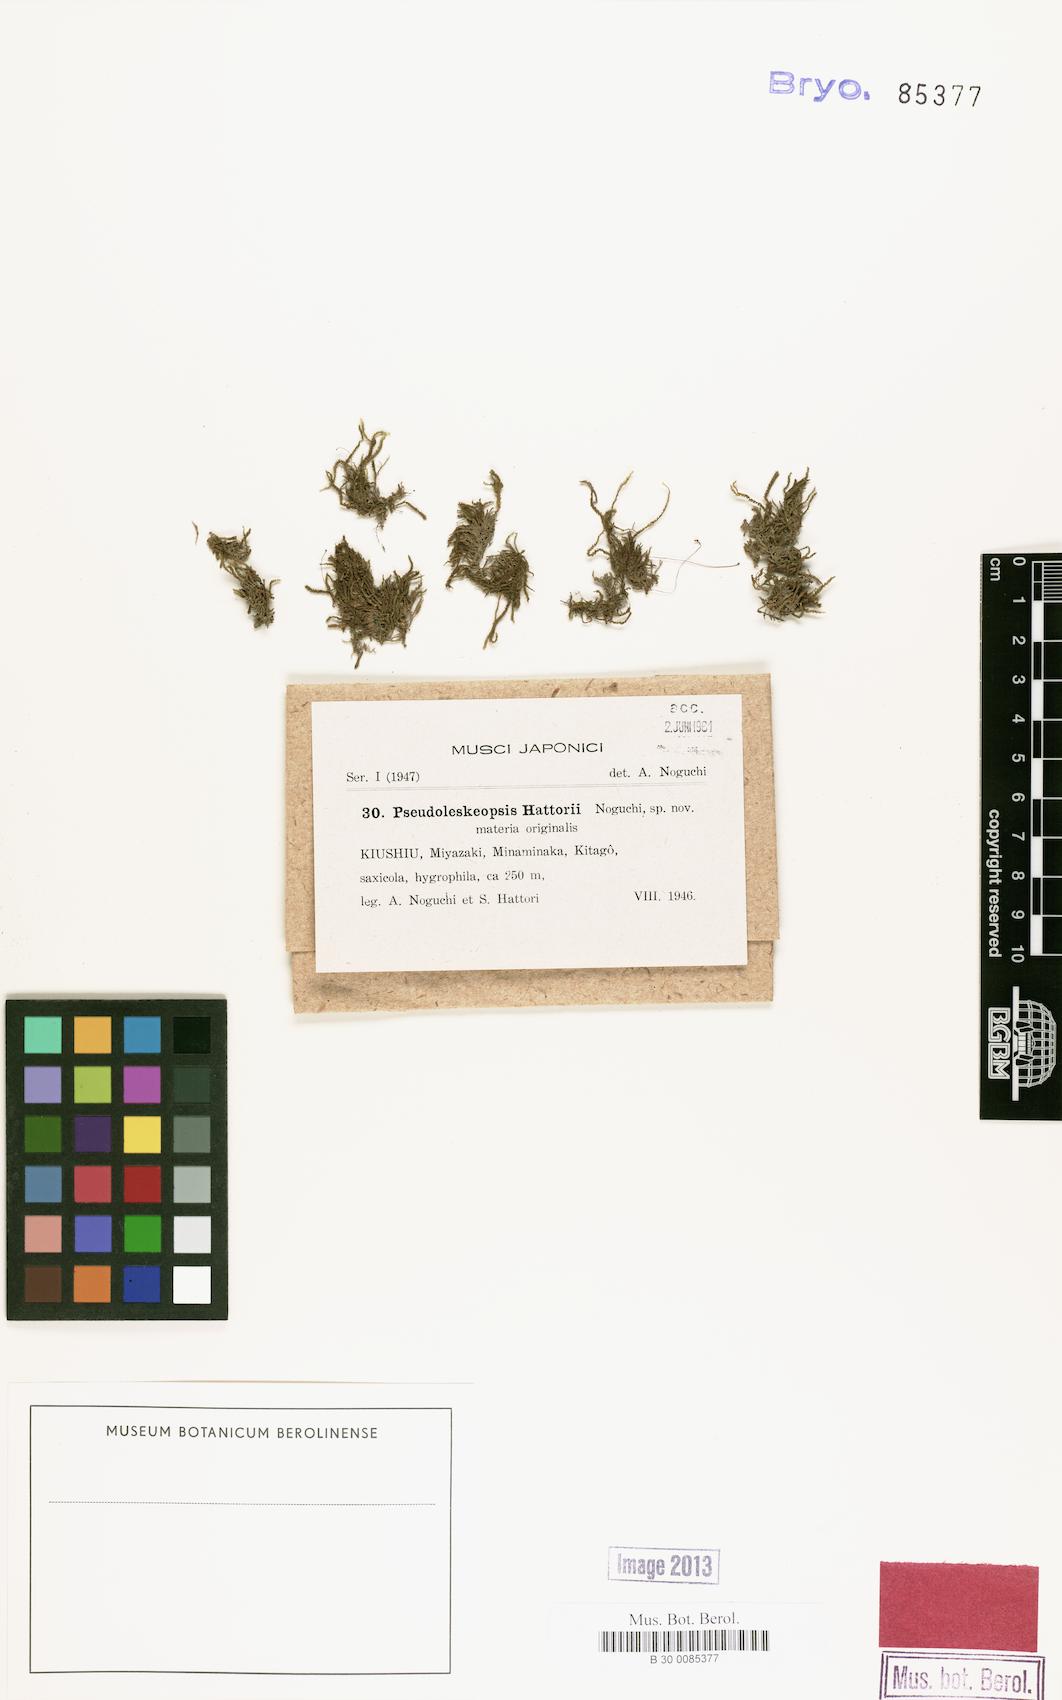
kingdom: Plantae
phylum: Bryophyta
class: Bryopsida
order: Hypnales
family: Leskeaceae
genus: Pseudoleskeopsis
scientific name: Pseudoleskeopsis tosana
